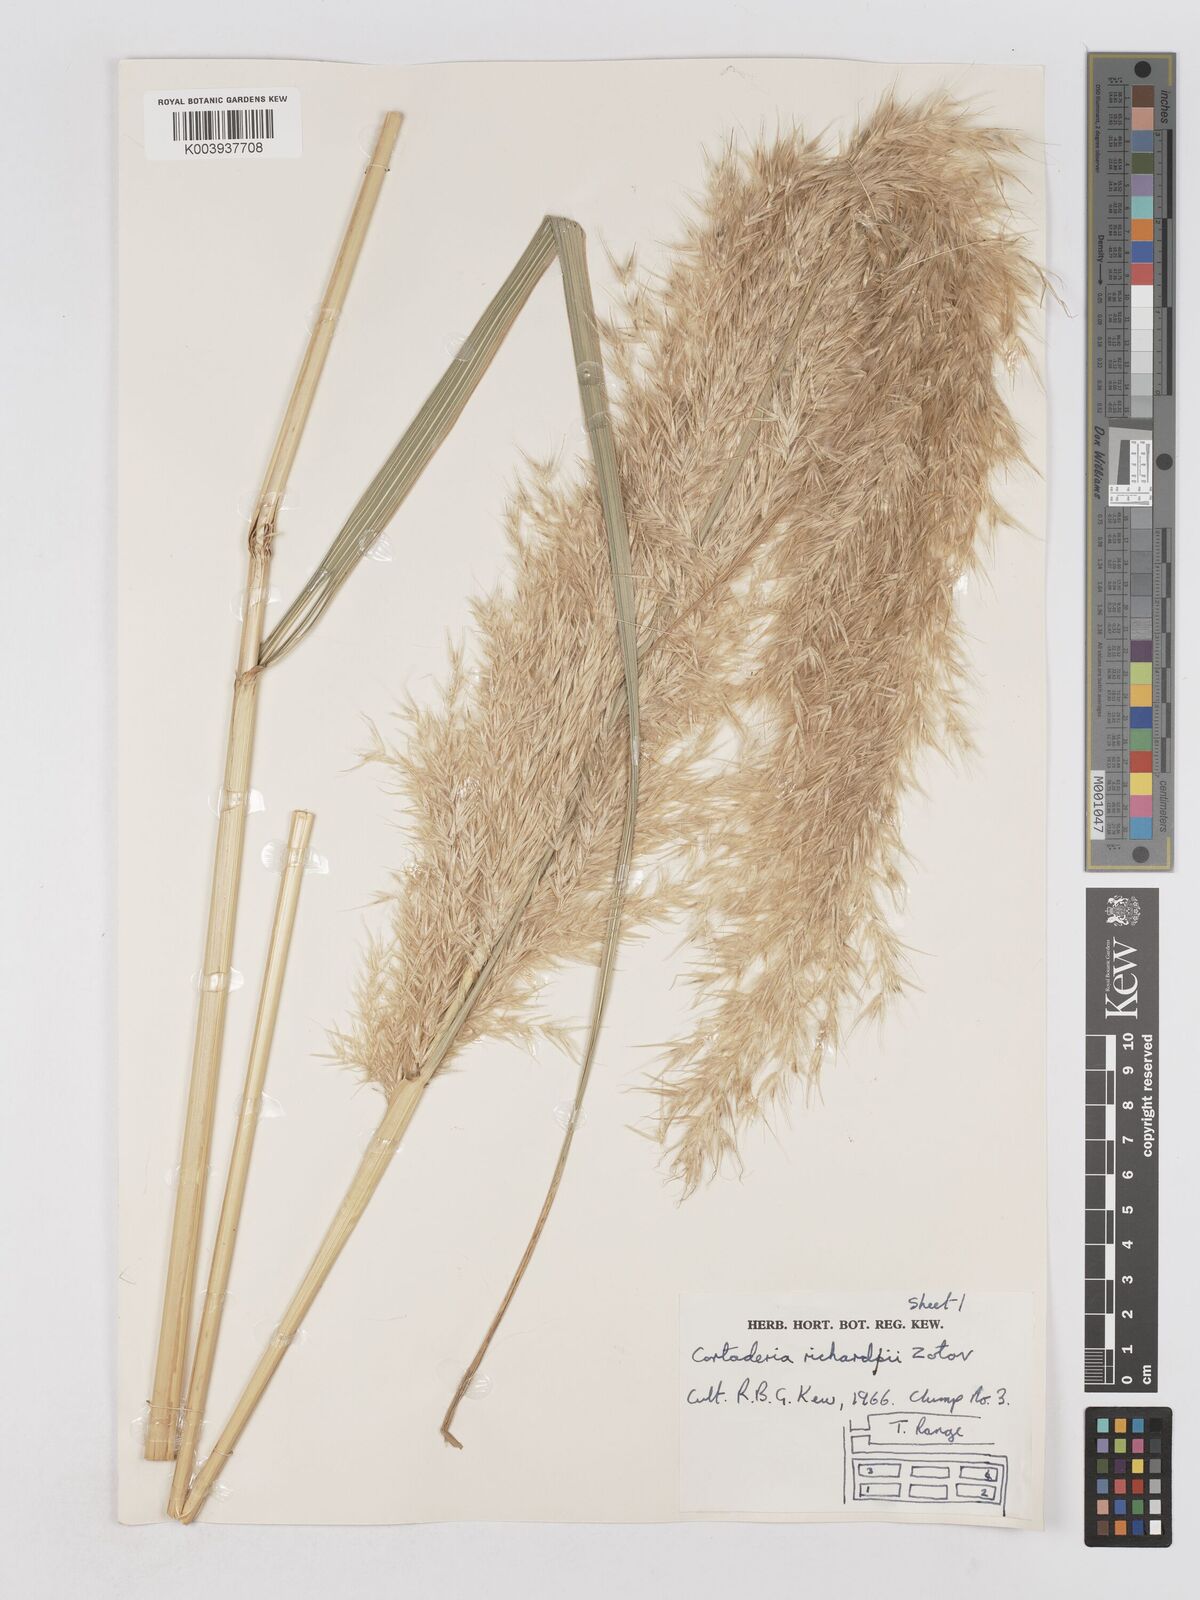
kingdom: Plantae
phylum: Tracheophyta
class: Liliopsida
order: Poales
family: Poaceae
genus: Austroderia
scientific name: Austroderia richardii
